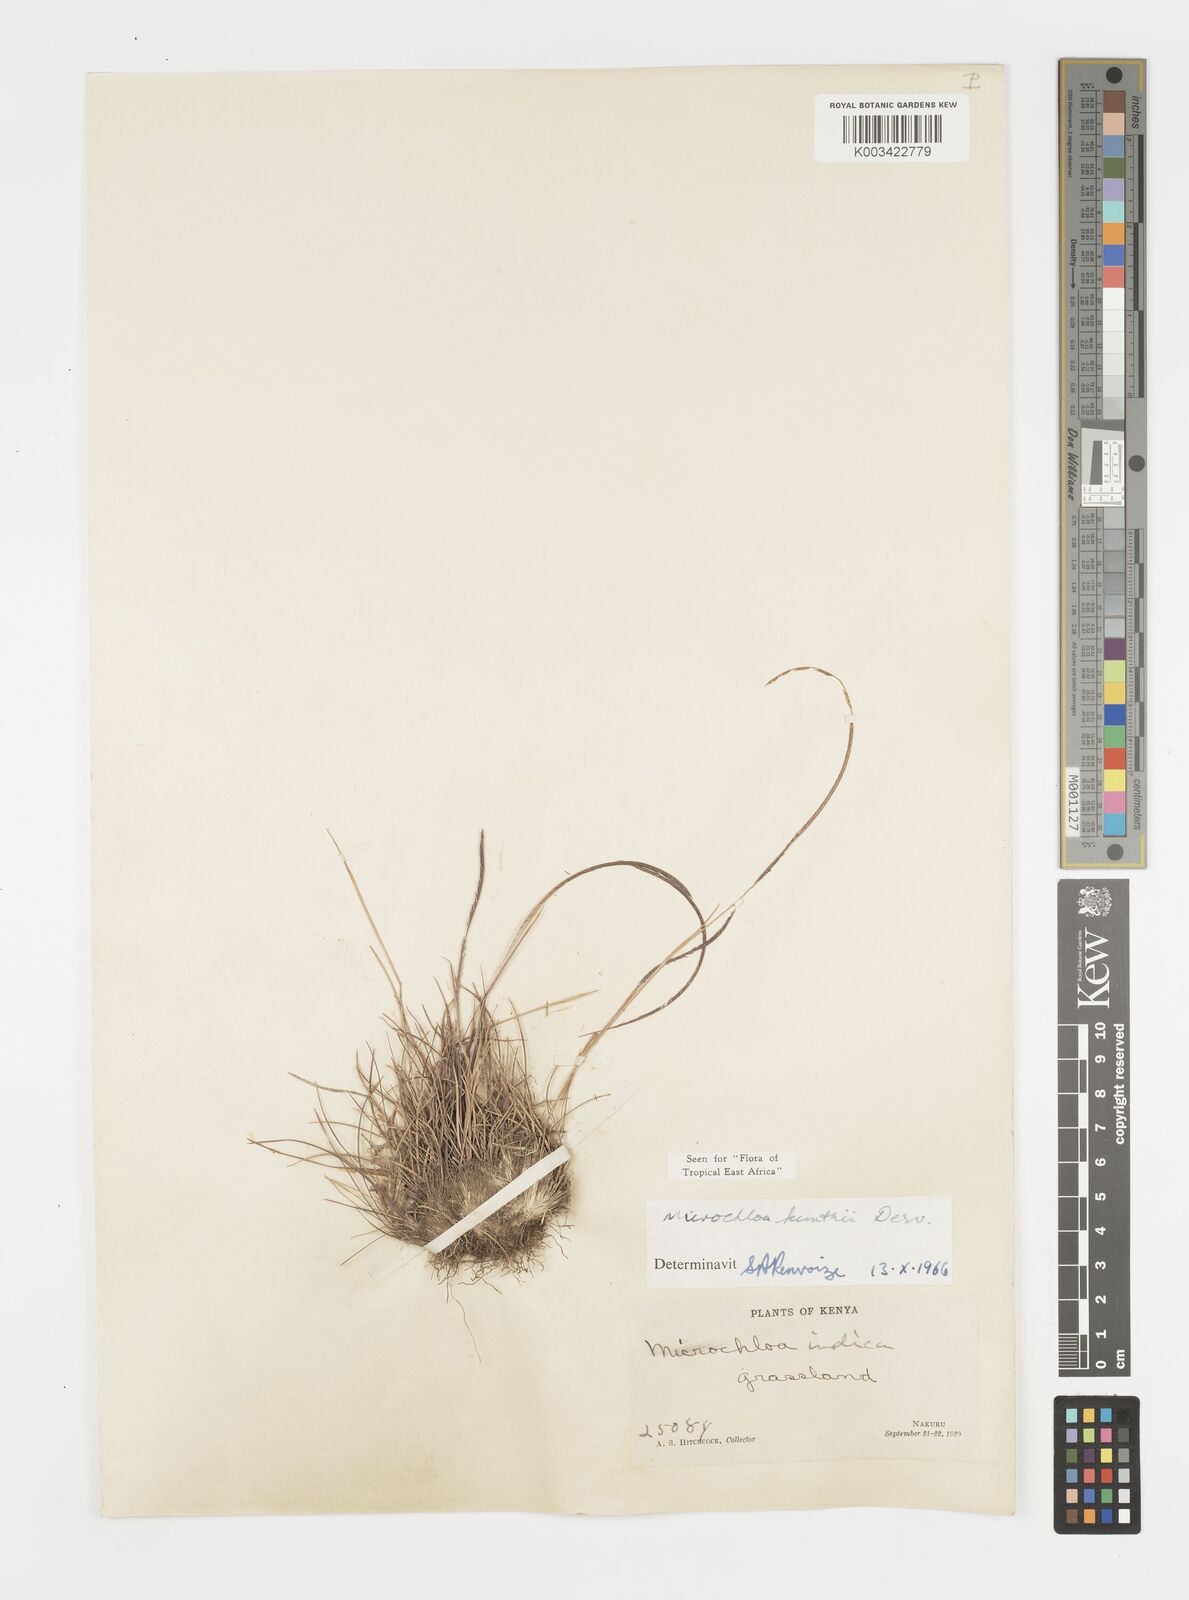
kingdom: Plantae
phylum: Tracheophyta
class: Liliopsida
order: Poales
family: Poaceae
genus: Microchloa
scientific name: Microchloa kunthii
